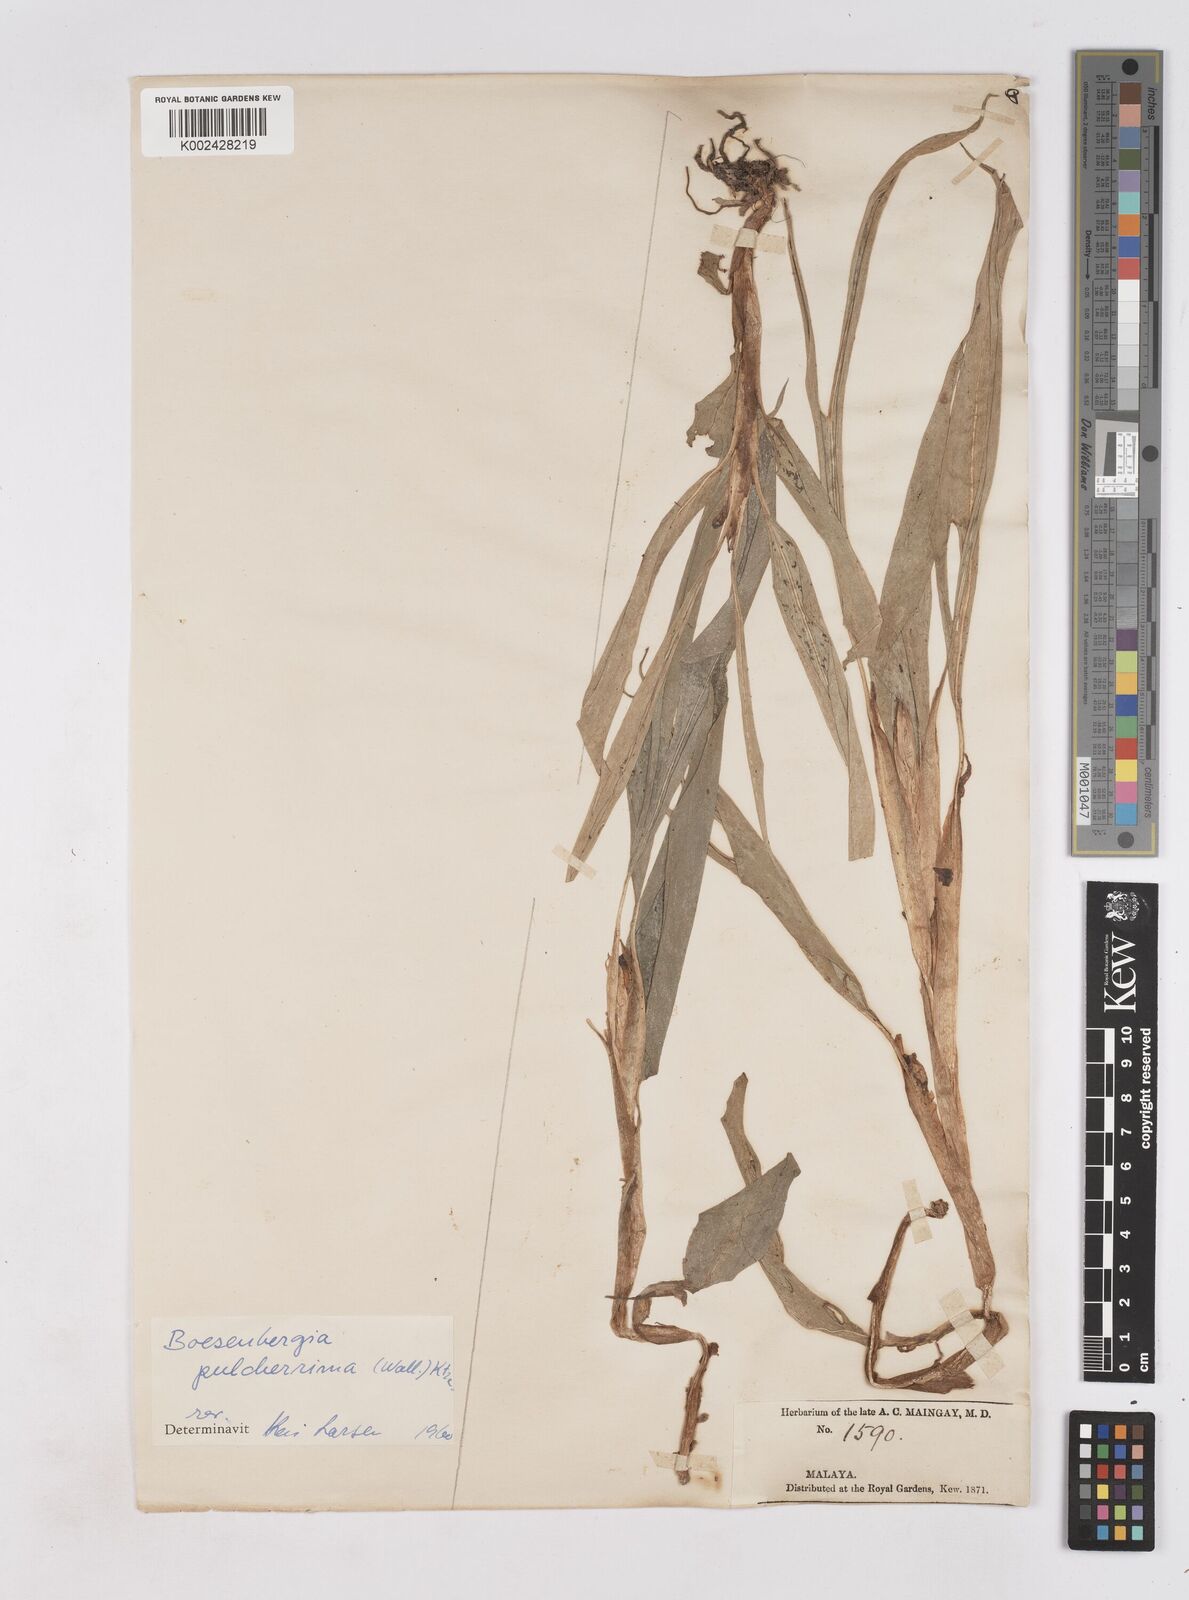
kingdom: Plantae
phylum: Tracheophyta
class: Liliopsida
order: Zingiberales
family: Zingiberaceae
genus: Boesenbergia
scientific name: Boesenbergia pulcherrima
